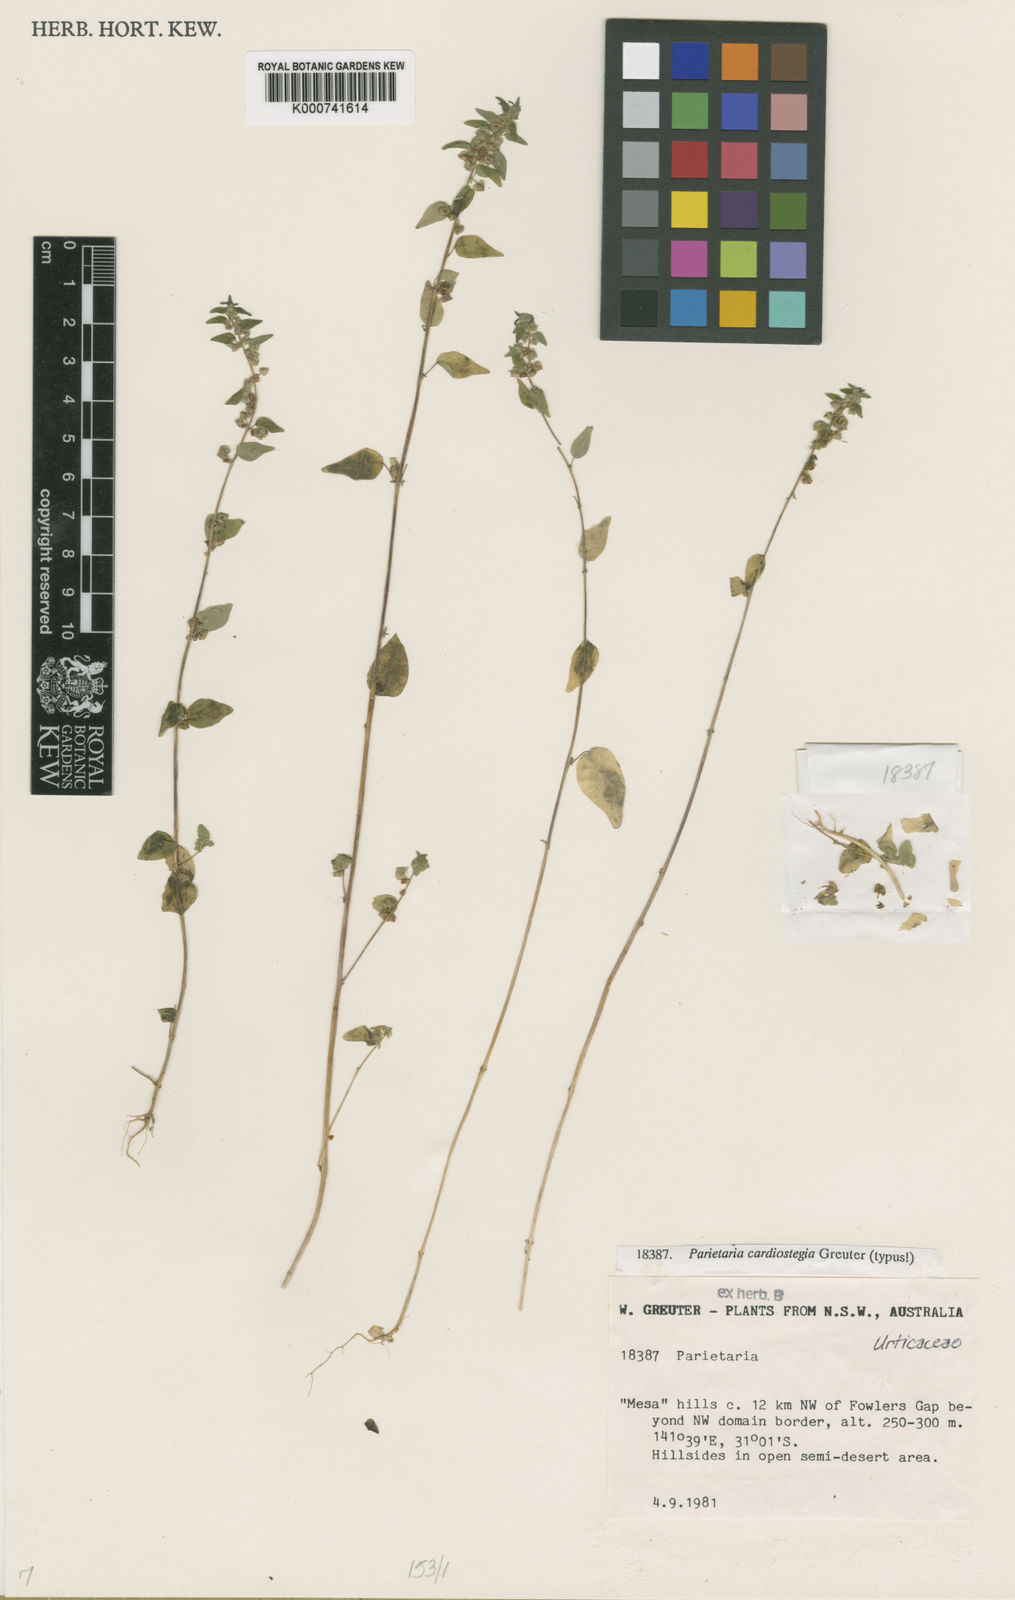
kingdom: Plantae
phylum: Tracheophyta
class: Magnoliopsida
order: Rosales
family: Urticaceae
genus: Parietaria
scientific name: Parietaria cardiostegia
